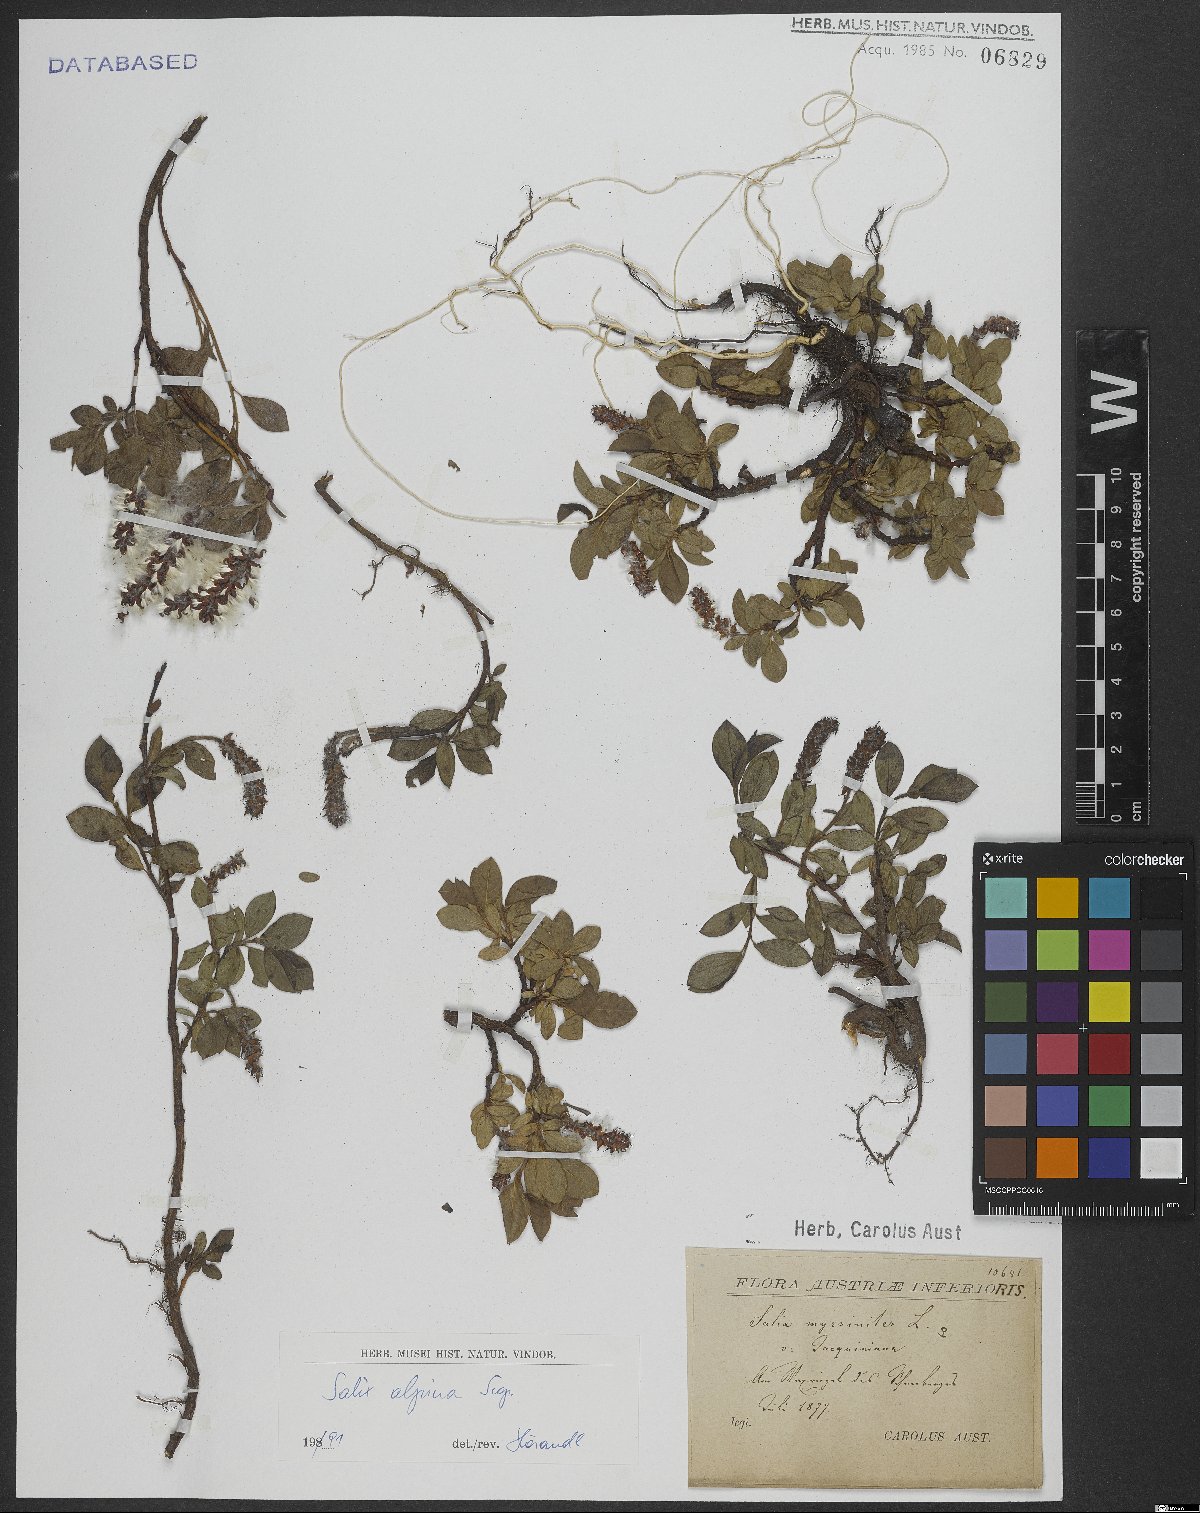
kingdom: Plantae
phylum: Tracheophyta
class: Magnoliopsida
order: Malpighiales
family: Salicaceae
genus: Salix
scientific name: Salix alpina
